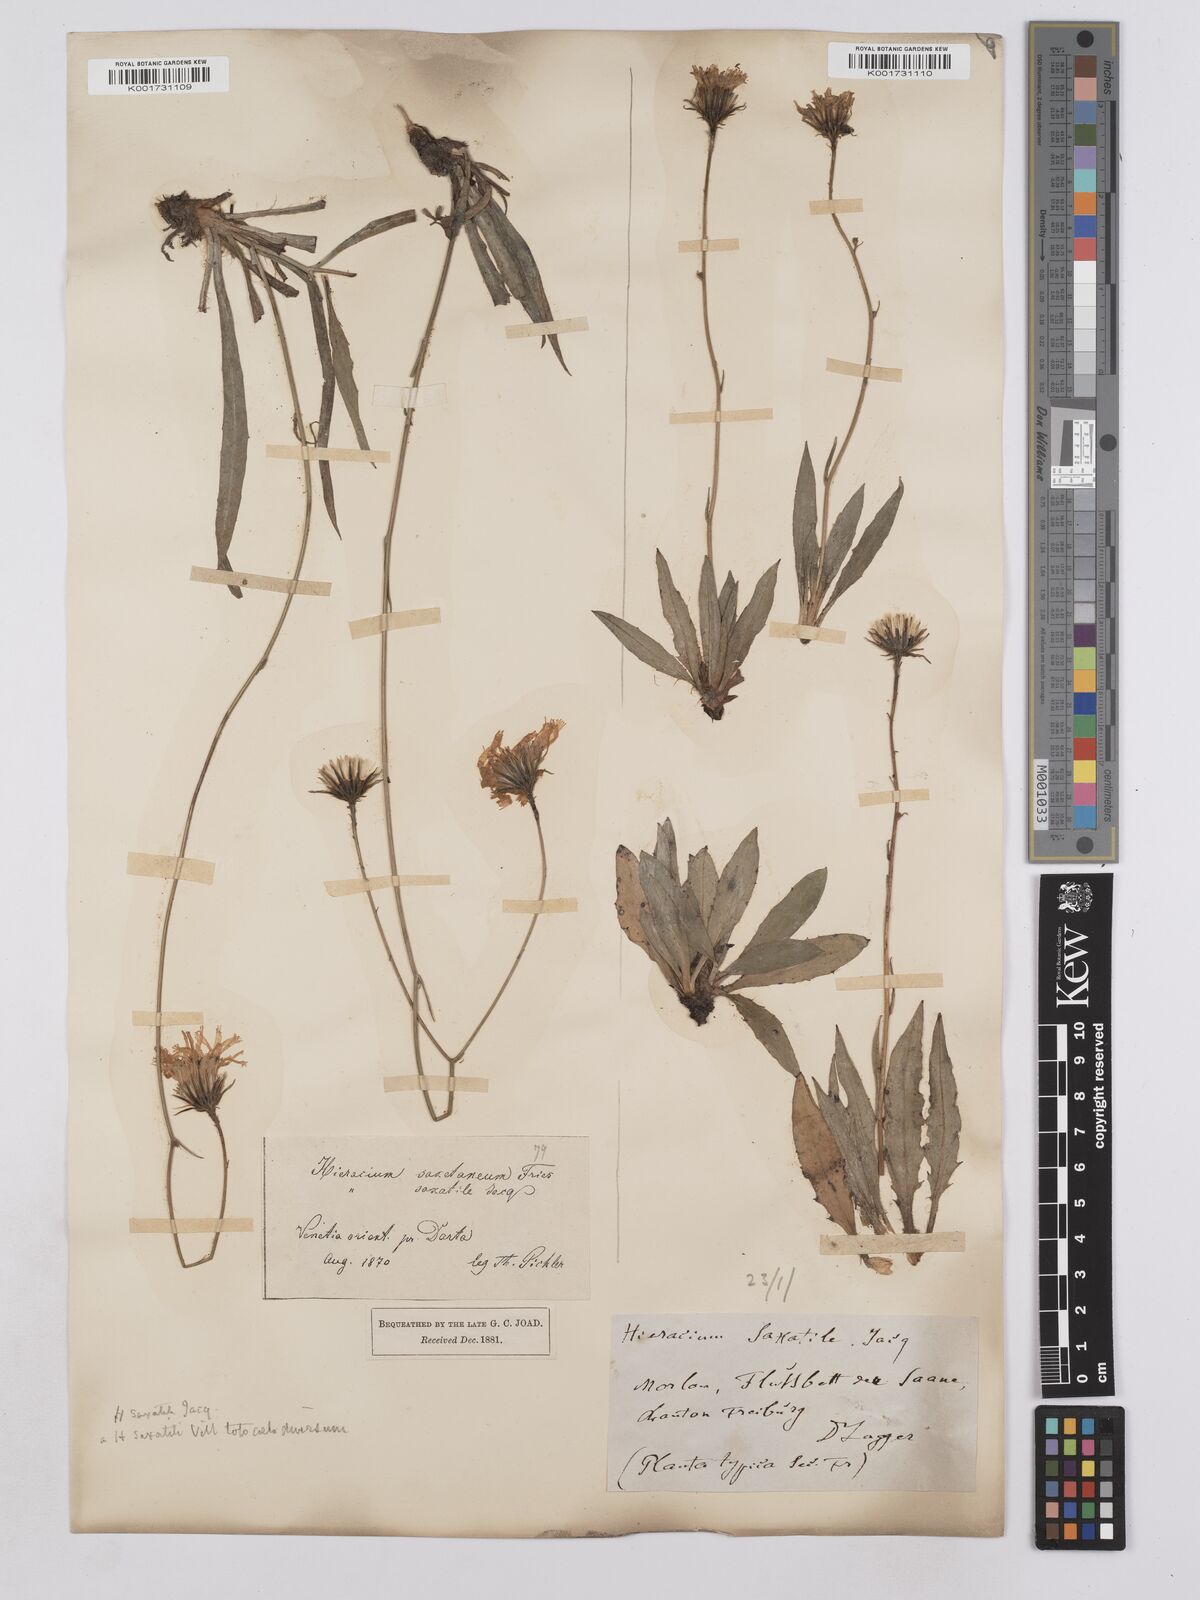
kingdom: Plantae
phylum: Tracheophyta
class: Magnoliopsida
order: Asterales
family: Asteraceae
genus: Hieracium
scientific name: Hieracium saxatile
